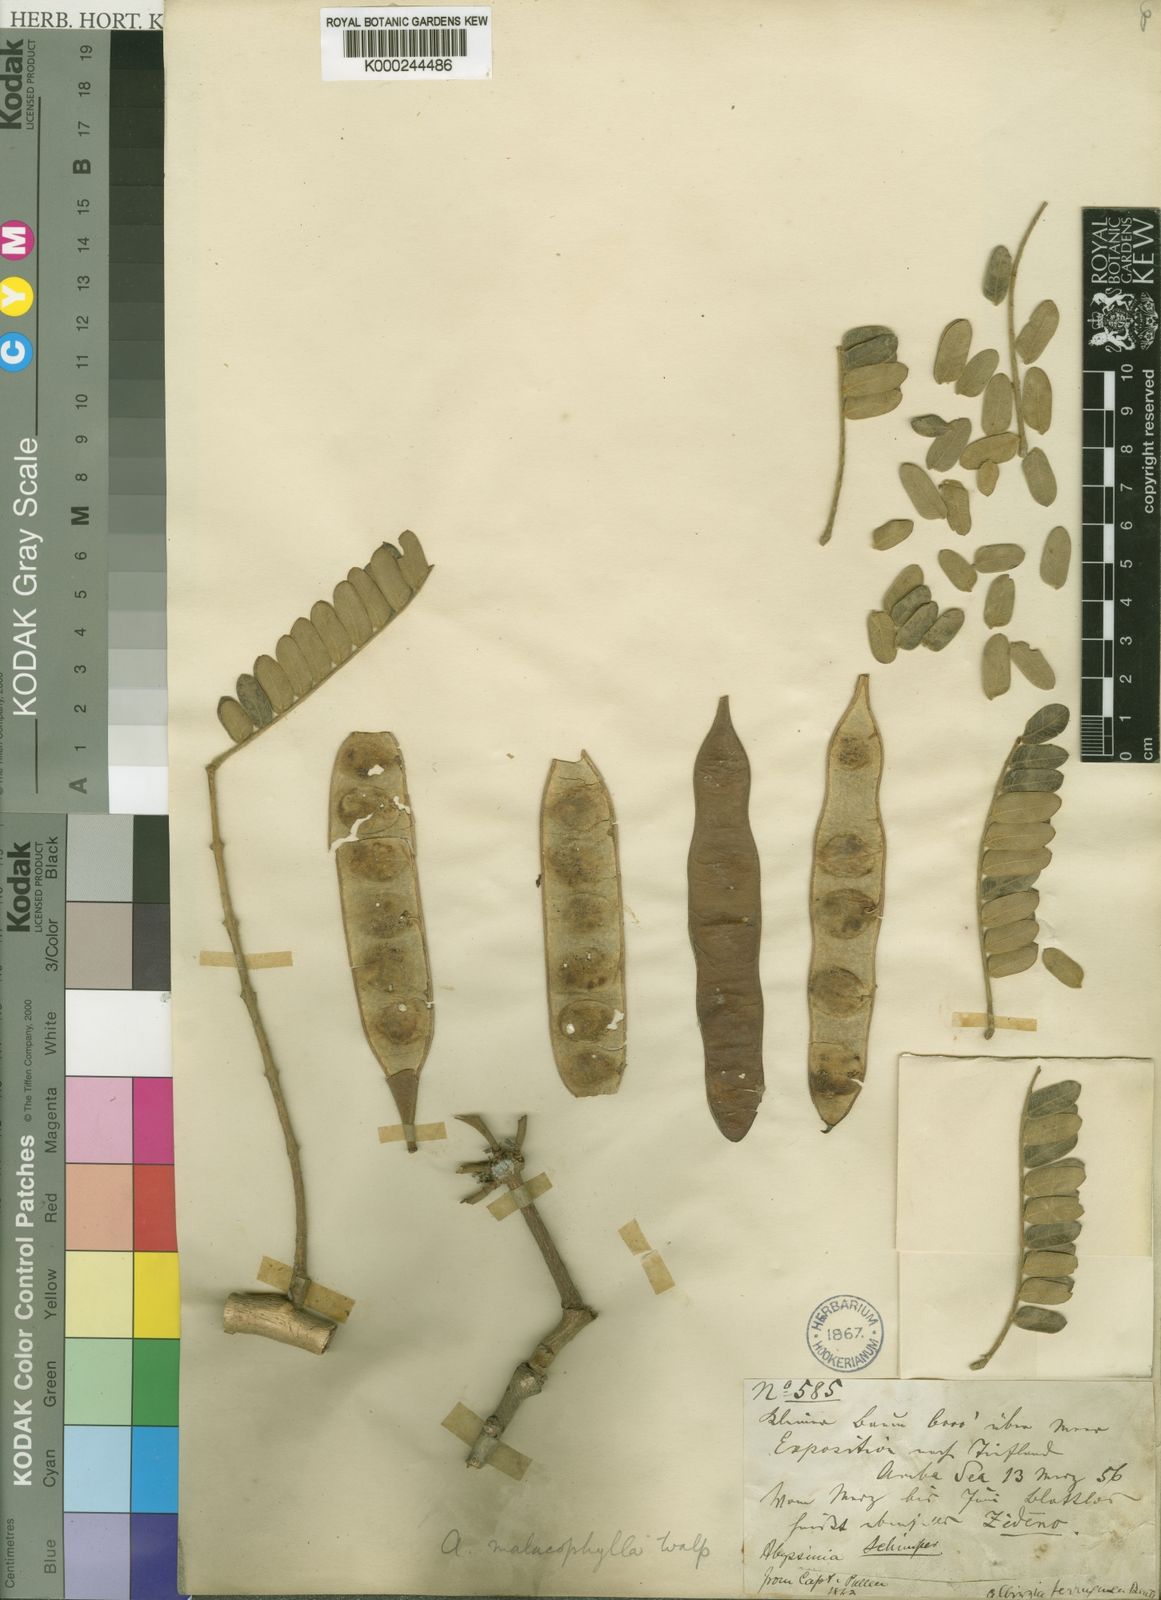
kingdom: Plantae
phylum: Tracheophyta
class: Magnoliopsida
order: Fabales
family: Fabaceae
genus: Albizia
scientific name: Albizia malacophylla
